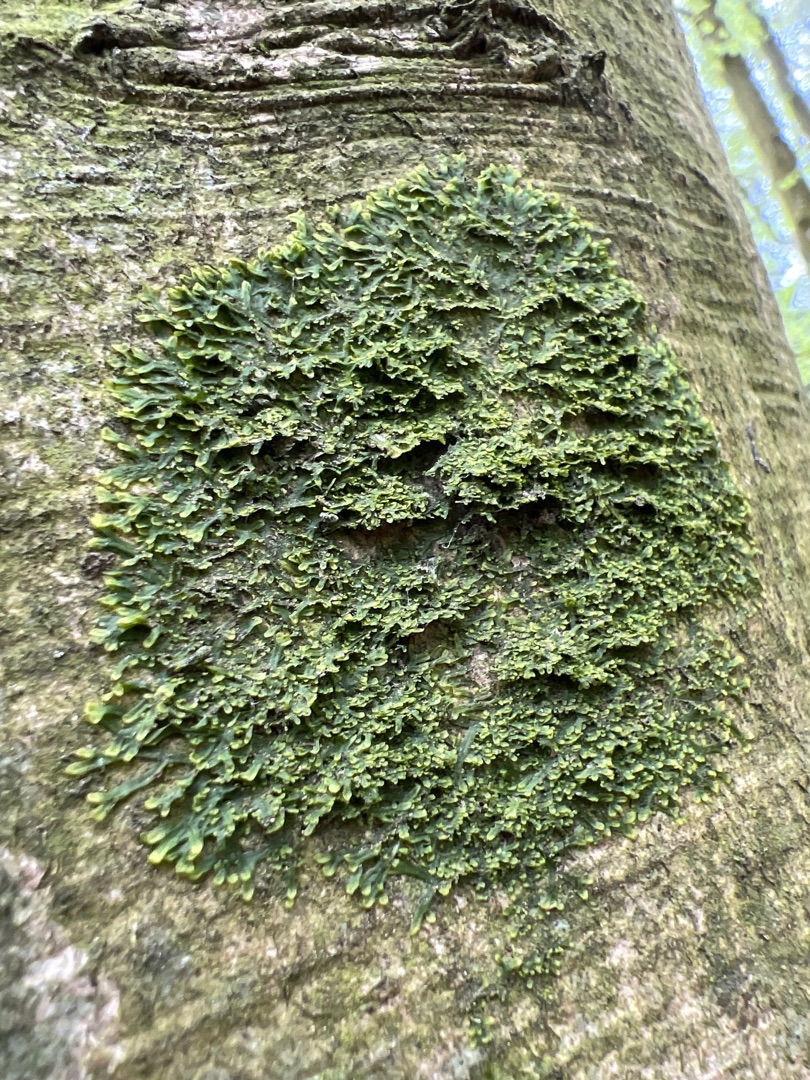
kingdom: Plantae
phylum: Marchantiophyta
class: Jungermanniopsida
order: Metzgeriales
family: Metzgeriaceae
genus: Metzgeria
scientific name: Metzgeria furcata
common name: Almindelig gaffelløv
